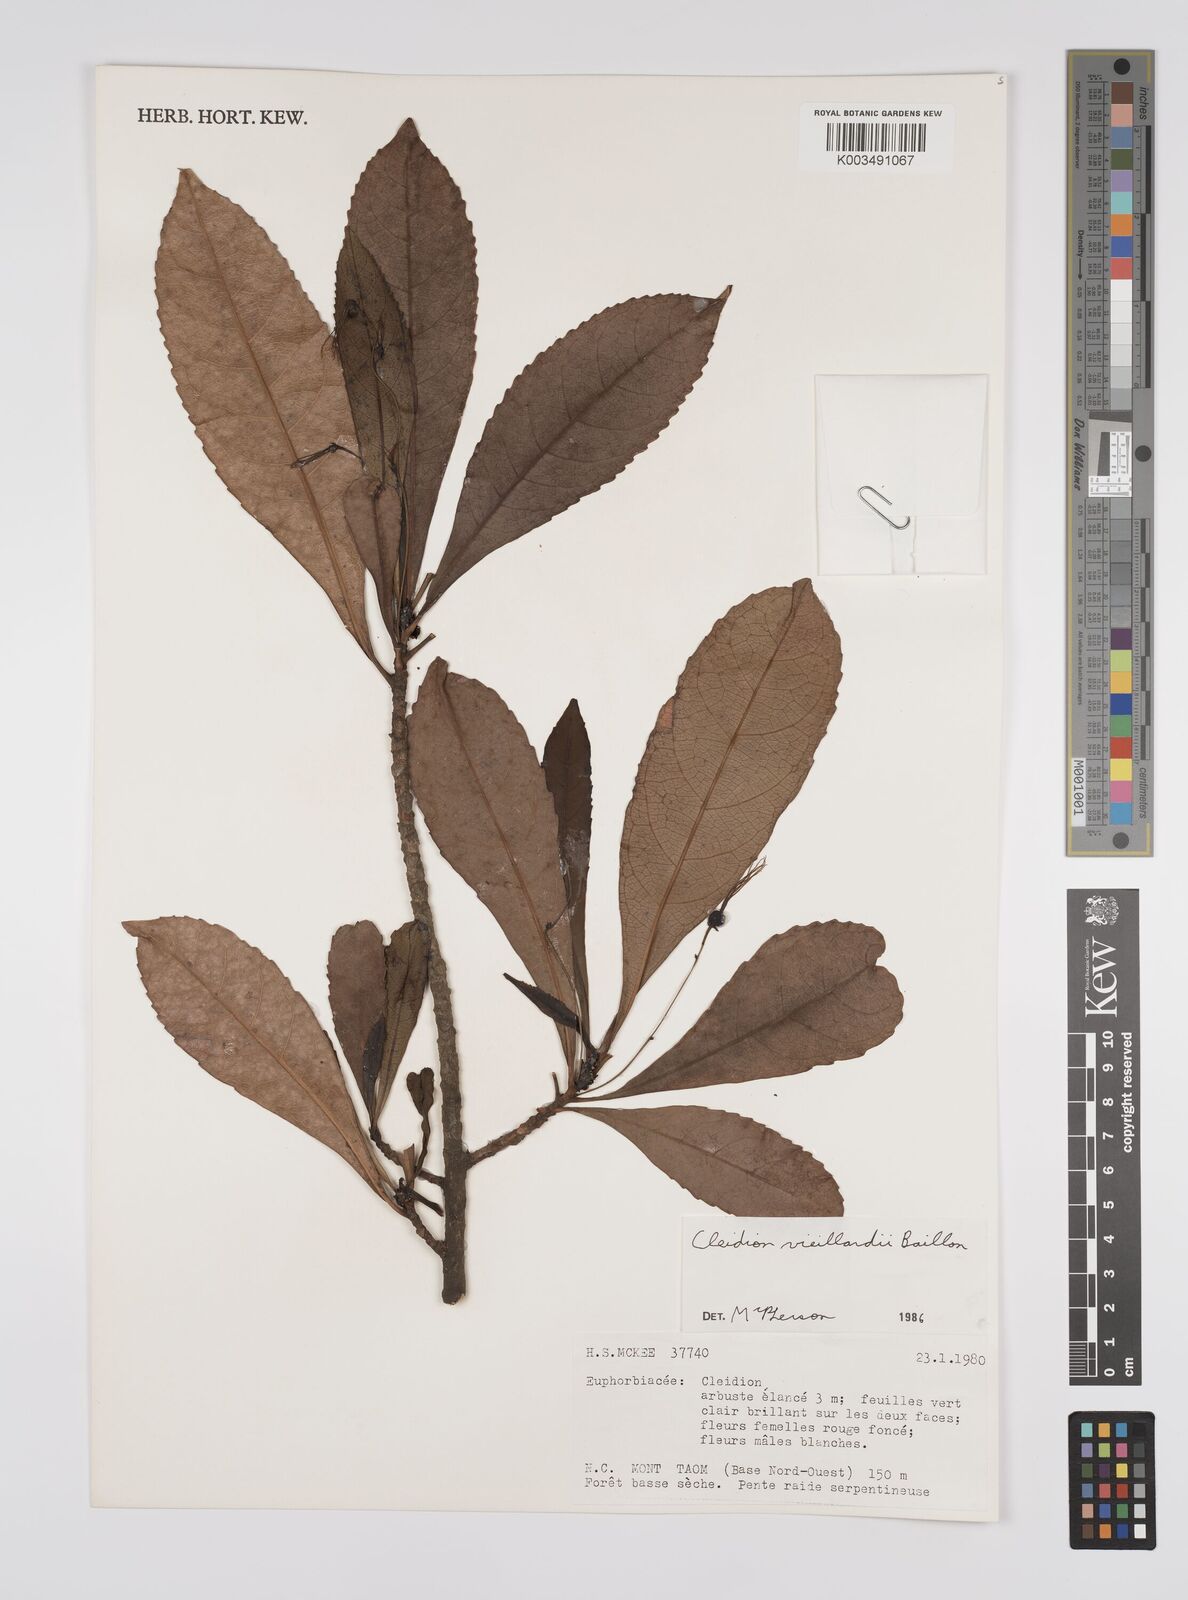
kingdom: Plantae
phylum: Tracheophyta
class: Magnoliopsida
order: Malpighiales
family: Euphorbiaceae
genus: Cleidion
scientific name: Cleidion vieillardii
